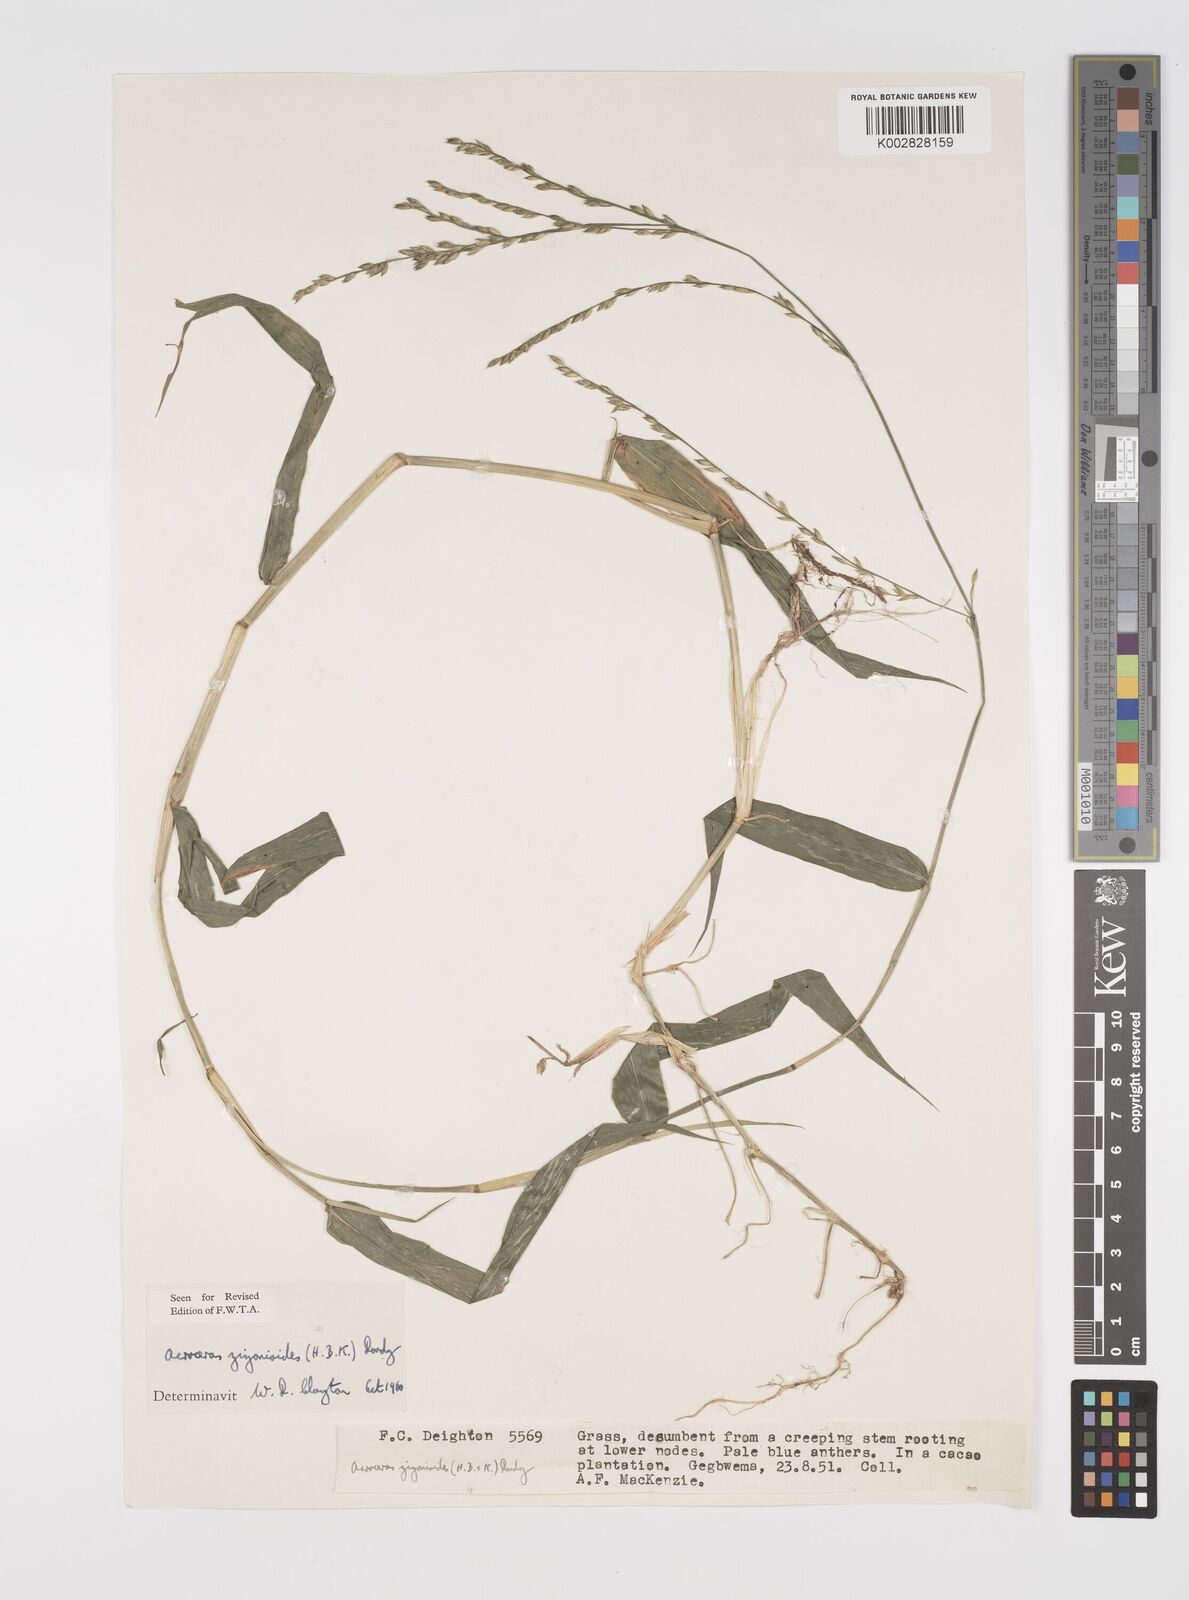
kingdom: Plantae
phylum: Tracheophyta
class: Liliopsida
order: Poales
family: Poaceae
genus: Acroceras
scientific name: Acroceras zizanioides
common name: Oat grass
